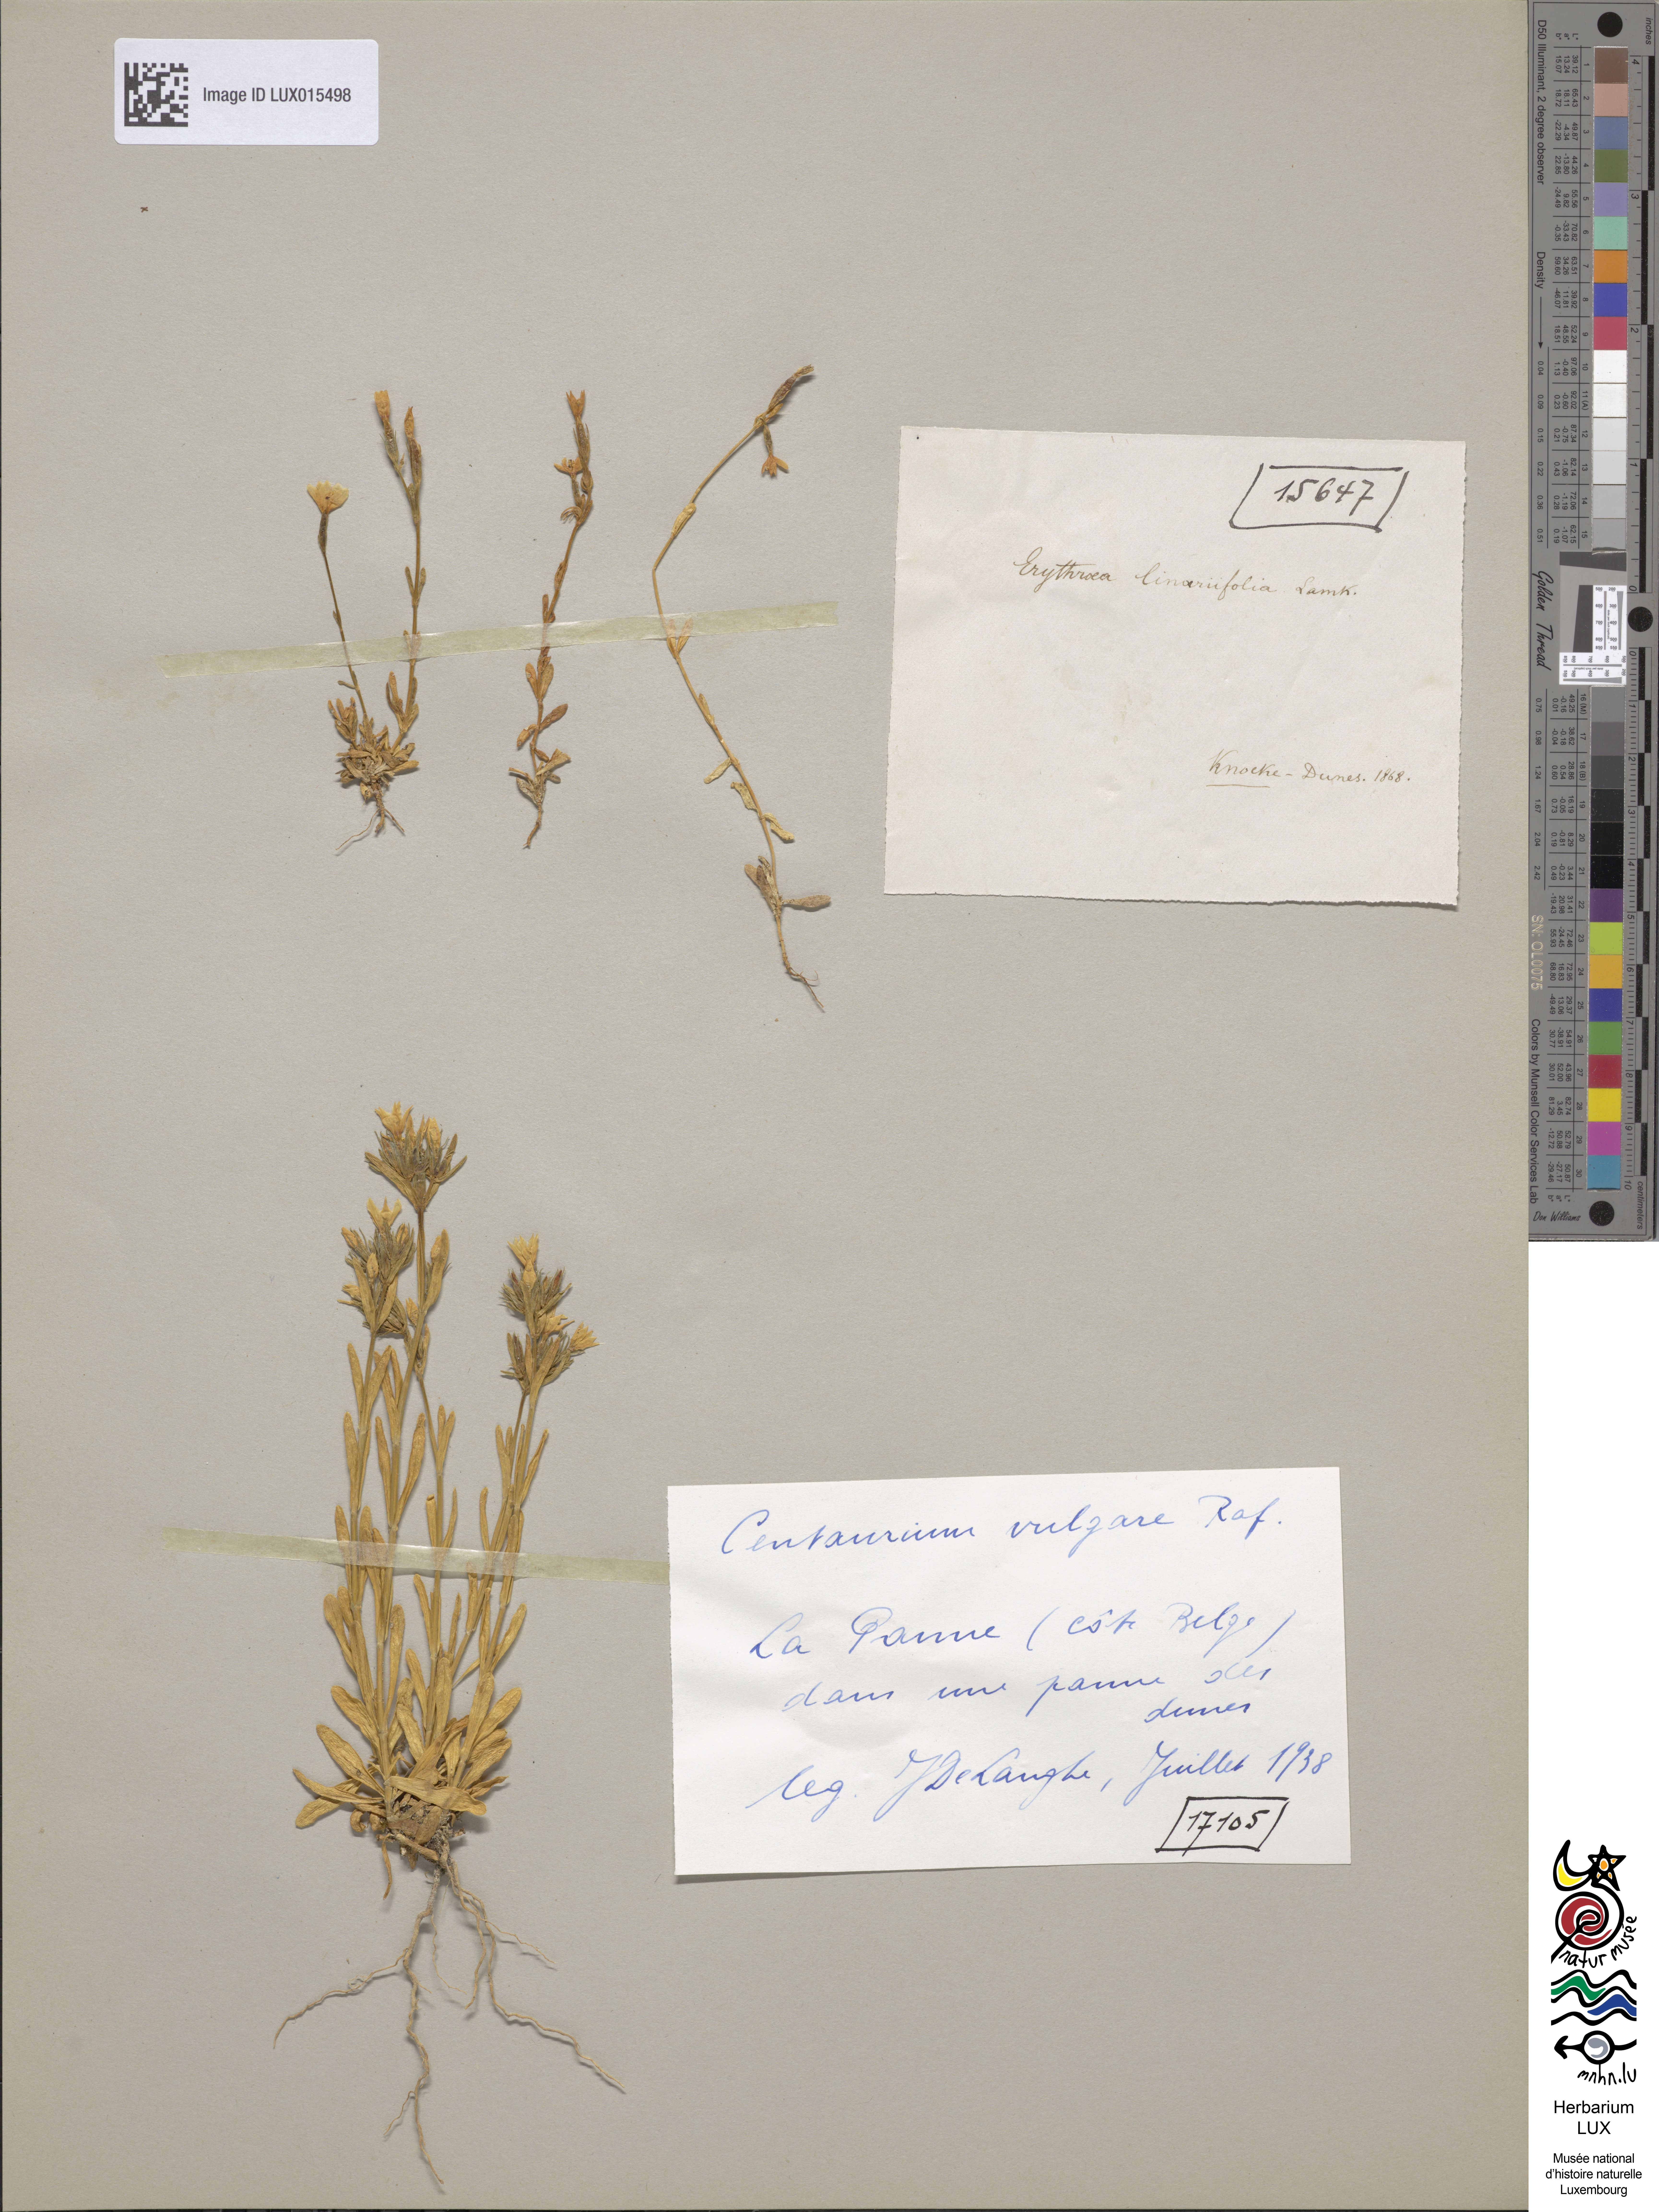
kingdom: Plantae
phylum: Tracheophyta
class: Magnoliopsida
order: Gentianales
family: Gentianaceae
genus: Centaurium
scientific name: Centaurium littorale
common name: Seaside centaury
